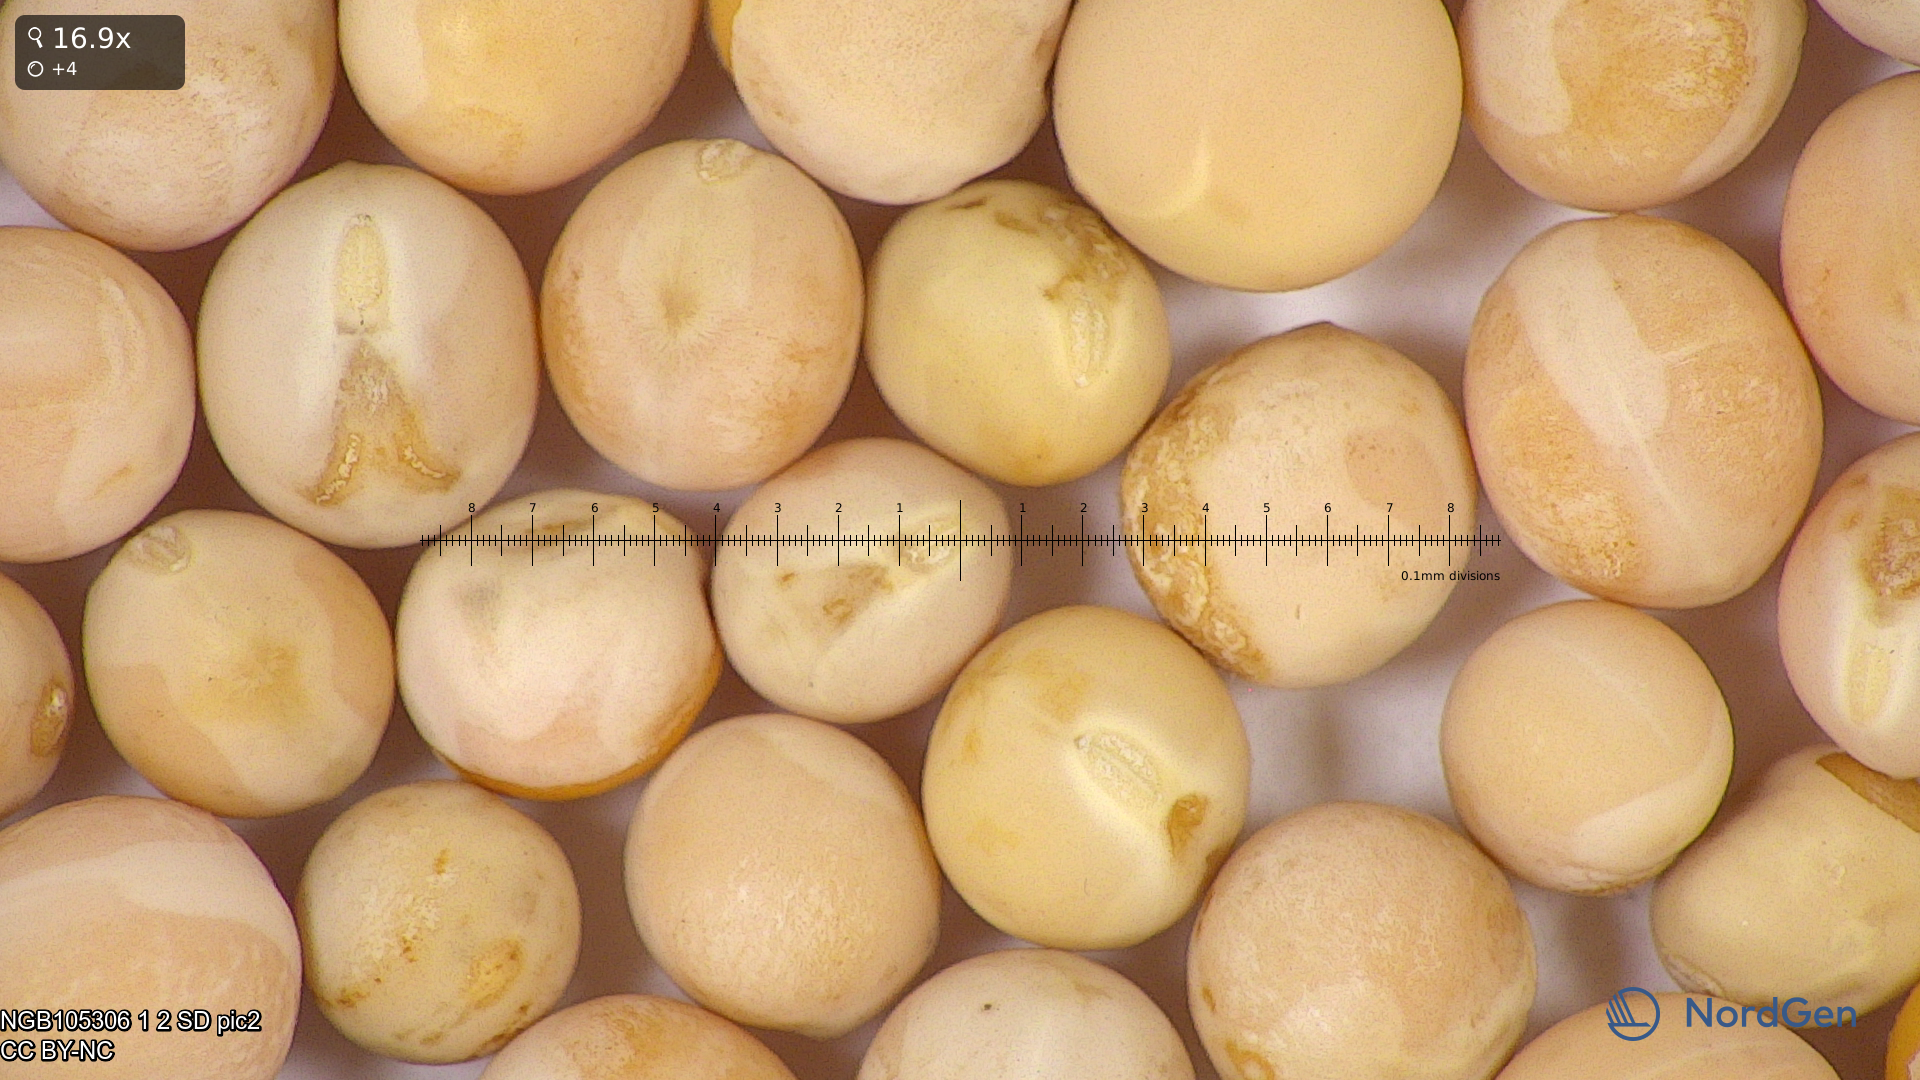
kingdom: Plantae
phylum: Tracheophyta
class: Magnoliopsida
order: Fabales
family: Fabaceae
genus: Lathyrus
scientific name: Lathyrus oleraceus
